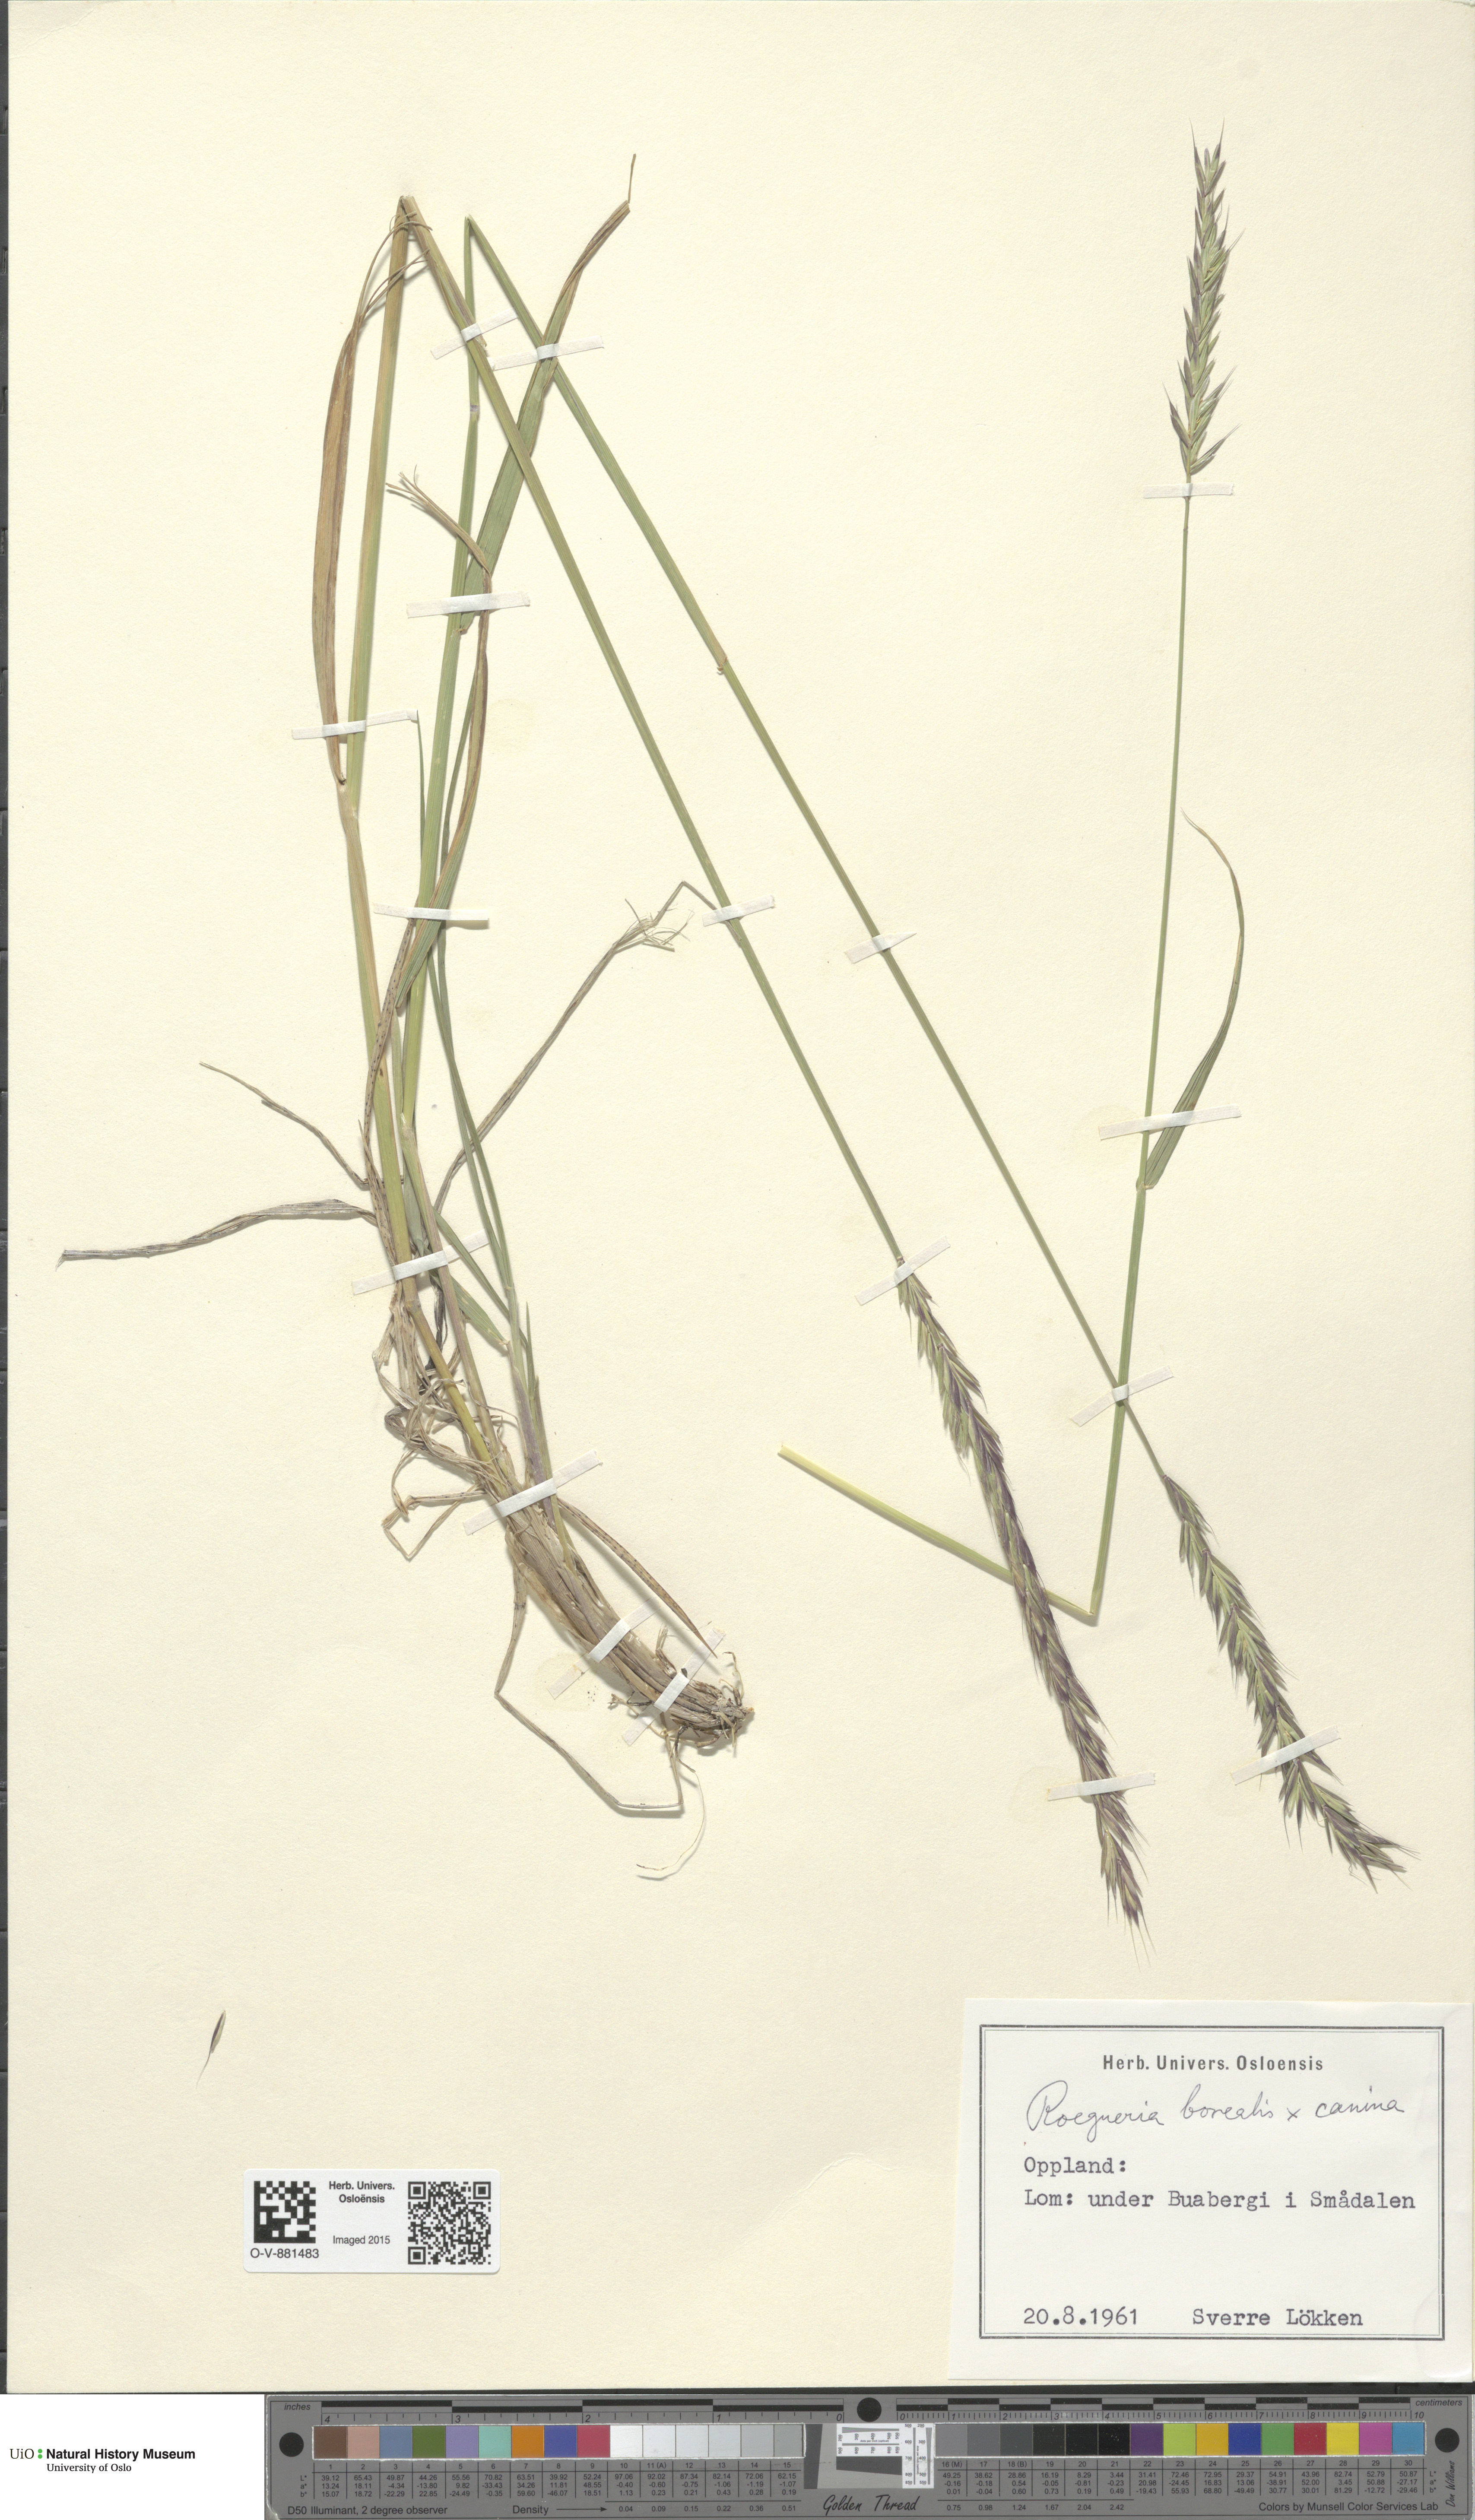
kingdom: Plantae
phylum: Tracheophyta
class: Liliopsida
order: Poales
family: Poaceae
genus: Elymus
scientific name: Elymus
